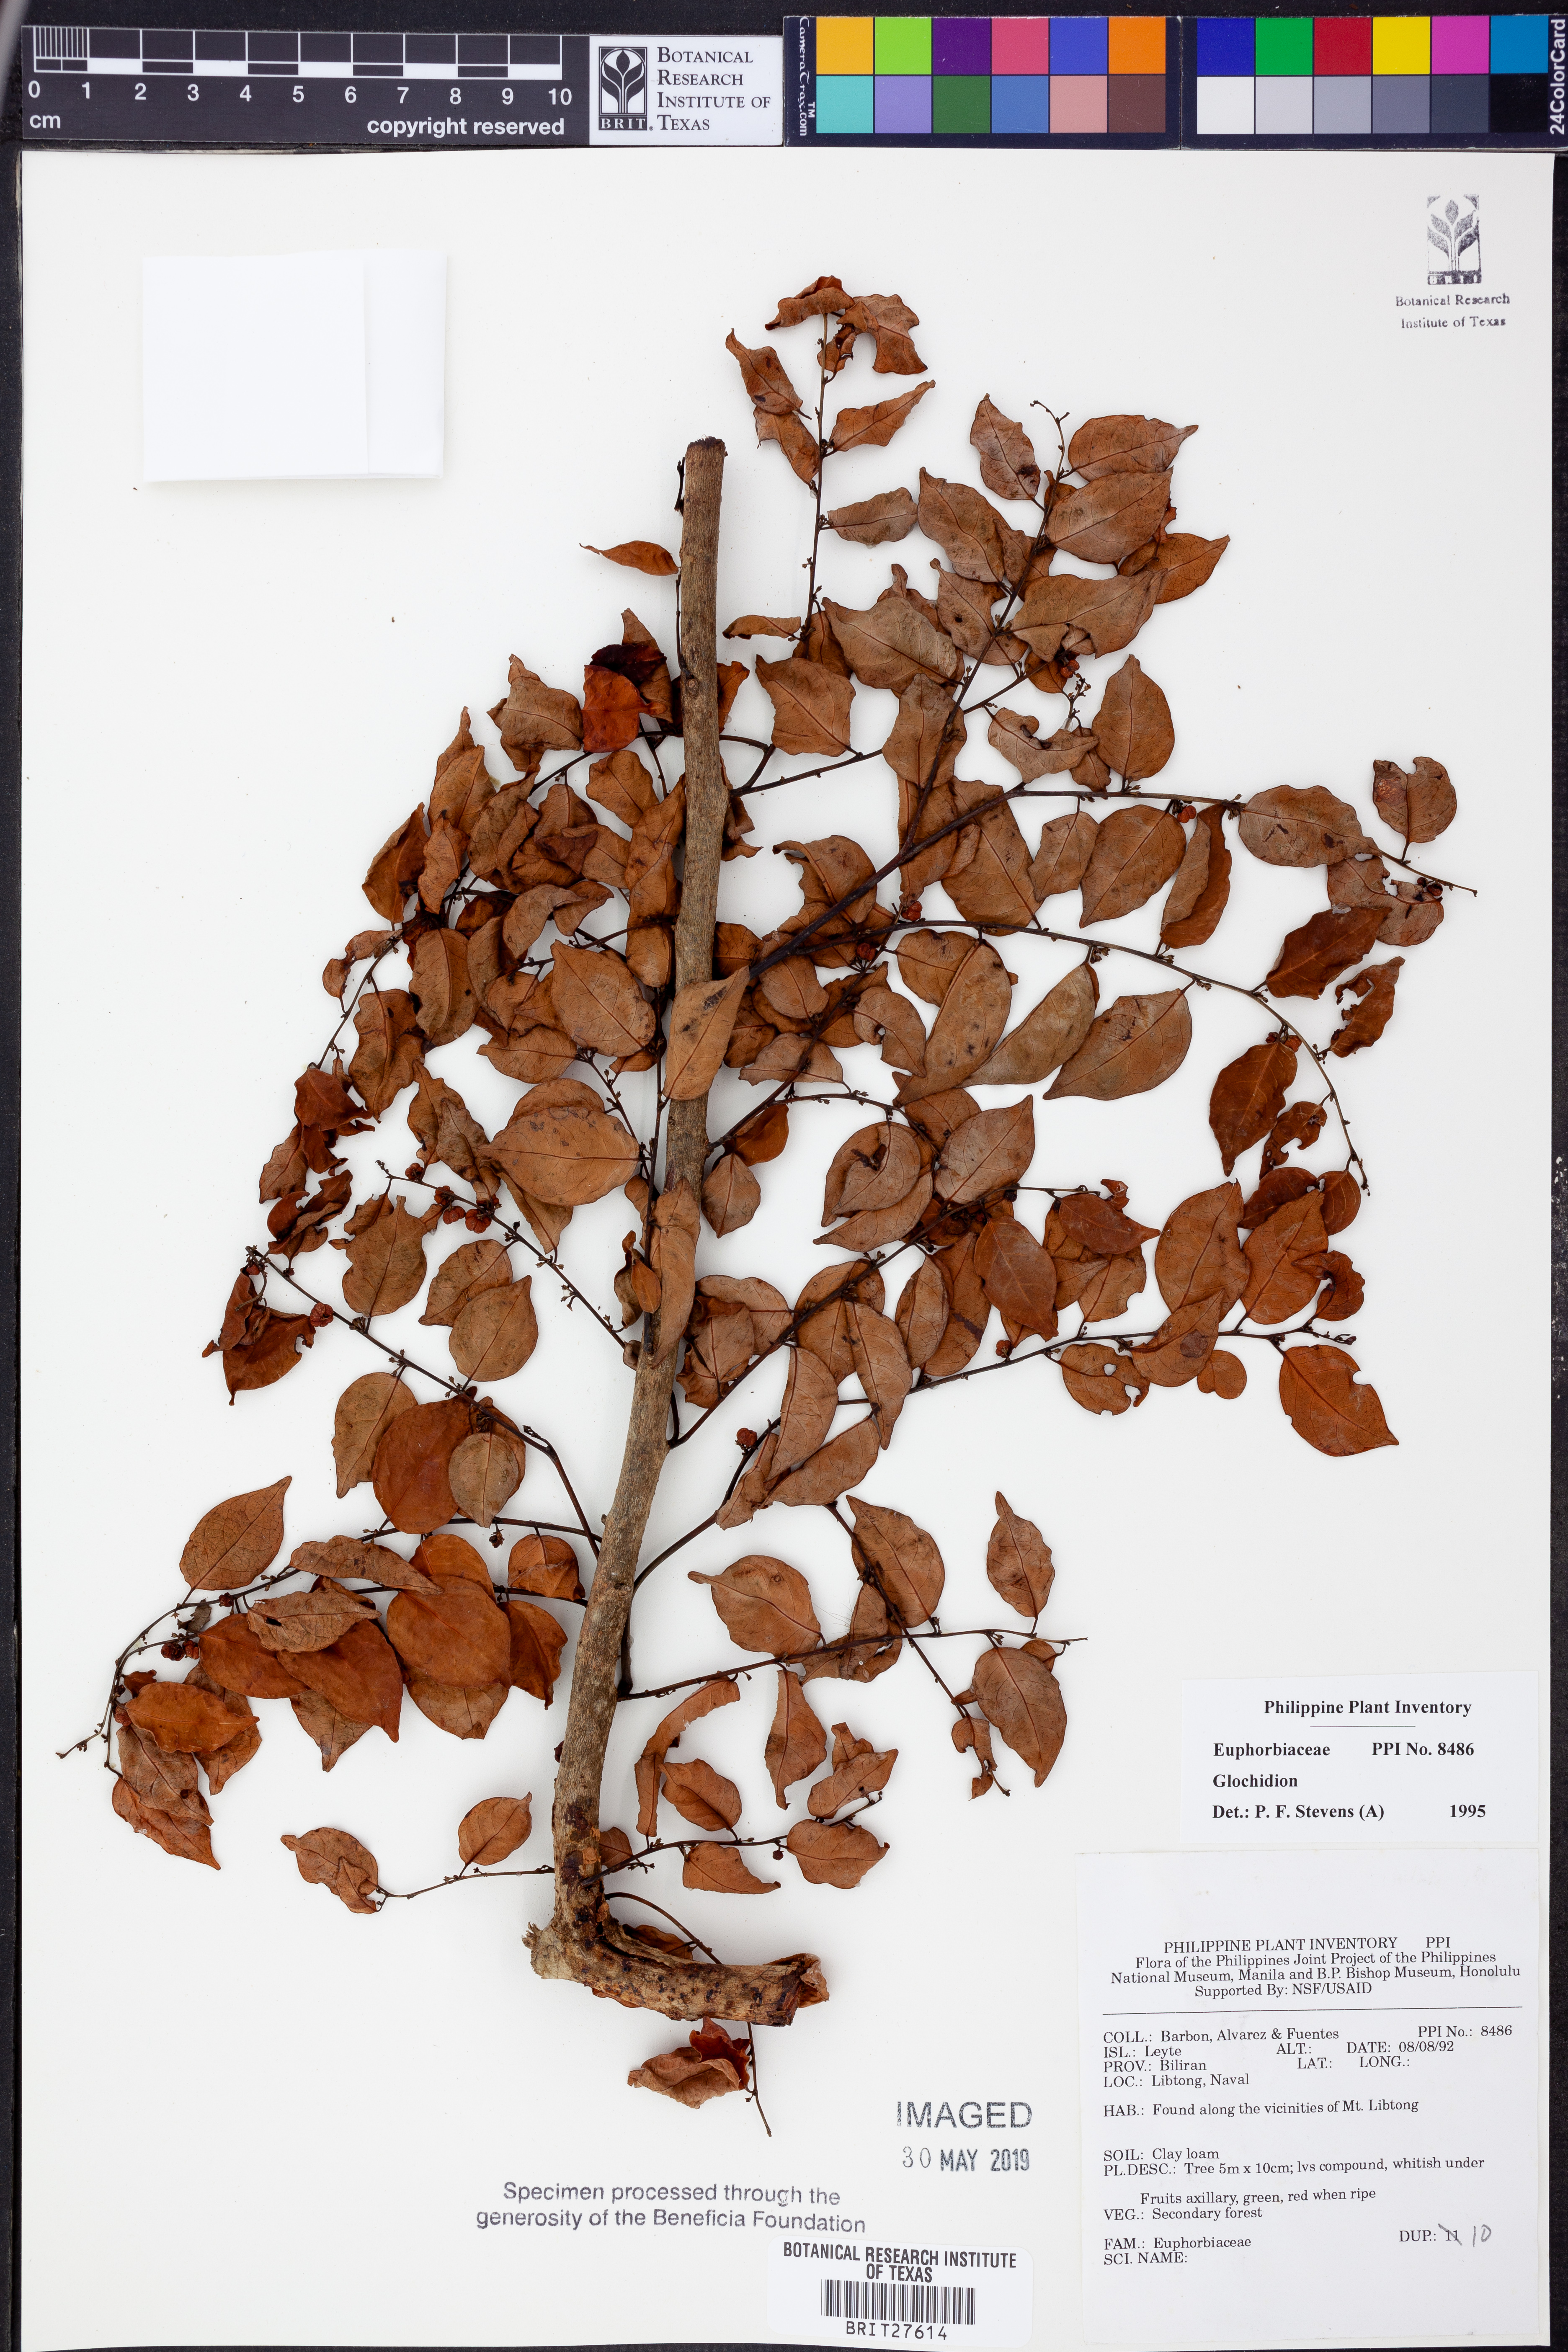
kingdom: Plantae
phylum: Tracheophyta
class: Magnoliopsida
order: Malpighiales
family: Phyllanthaceae
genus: Glochidion
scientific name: Glochidion
